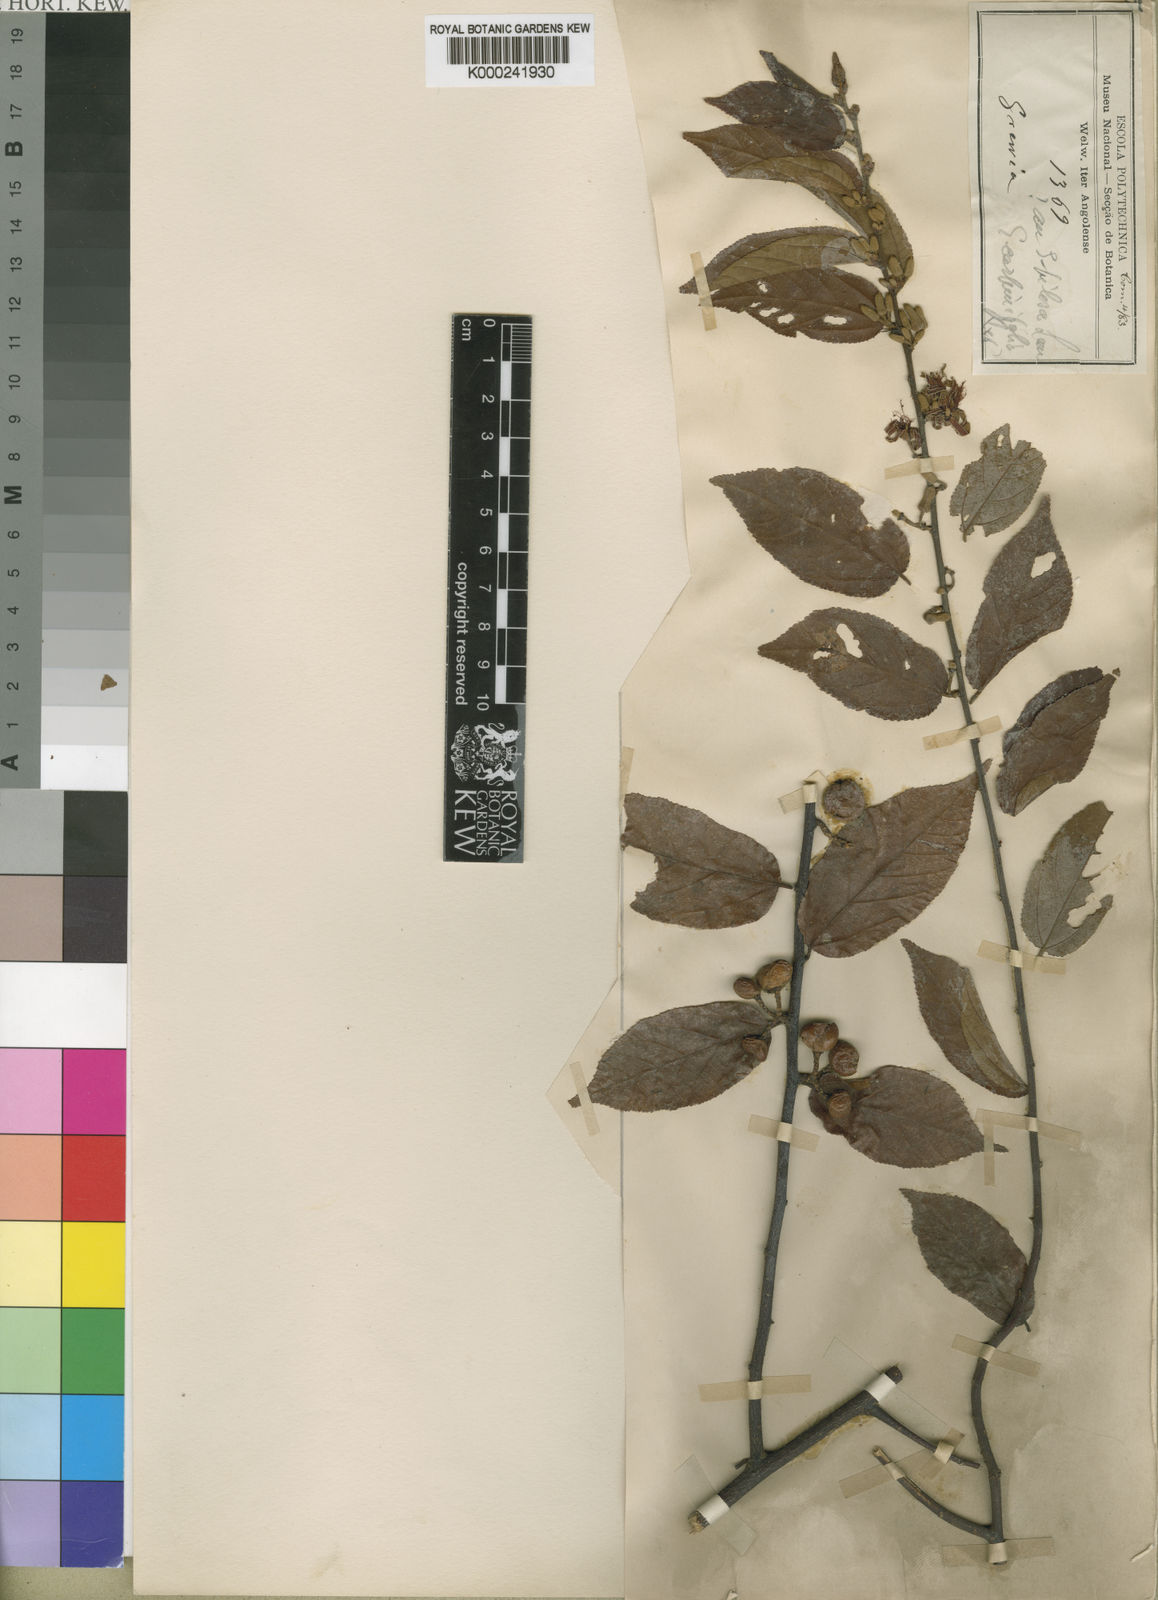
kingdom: Plantae
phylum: Tracheophyta
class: Magnoliopsida
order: Malvales
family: Malvaceae
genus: Grewia
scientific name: Grewia
